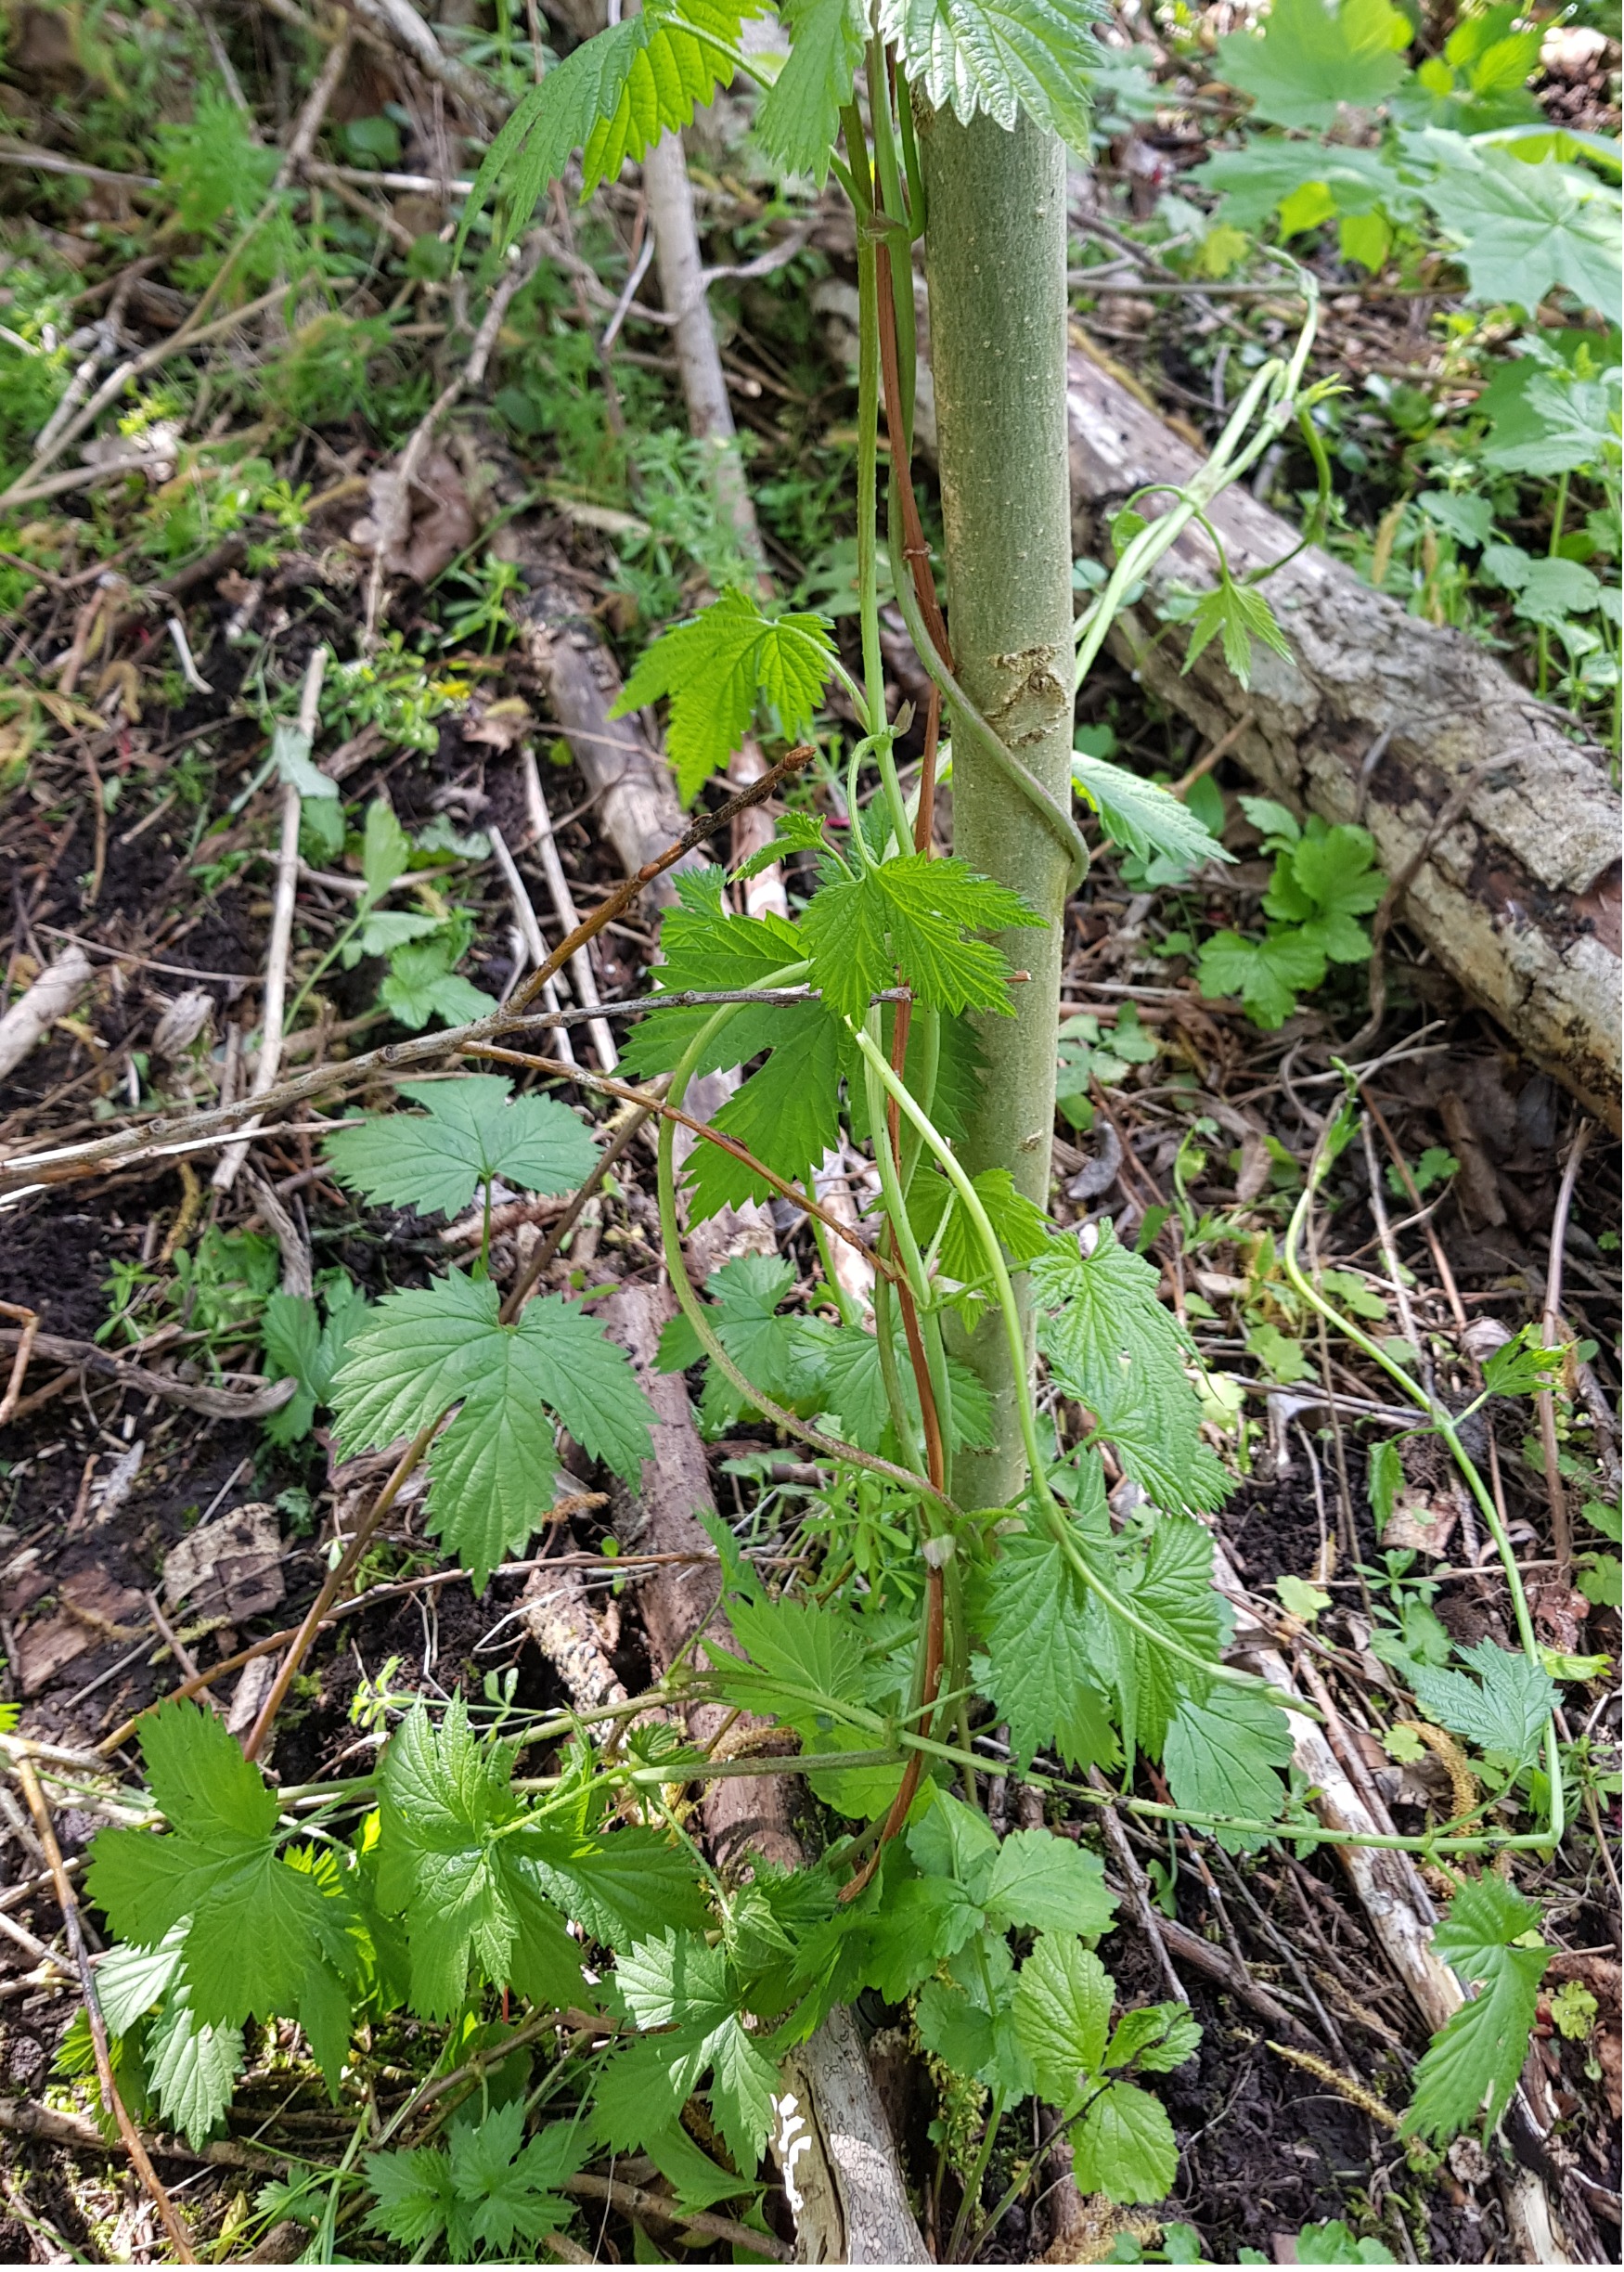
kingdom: Plantae
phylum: Tracheophyta
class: Magnoliopsida
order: Rosales
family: Cannabaceae
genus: Humulus
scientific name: Humulus lupulus
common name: Humle
